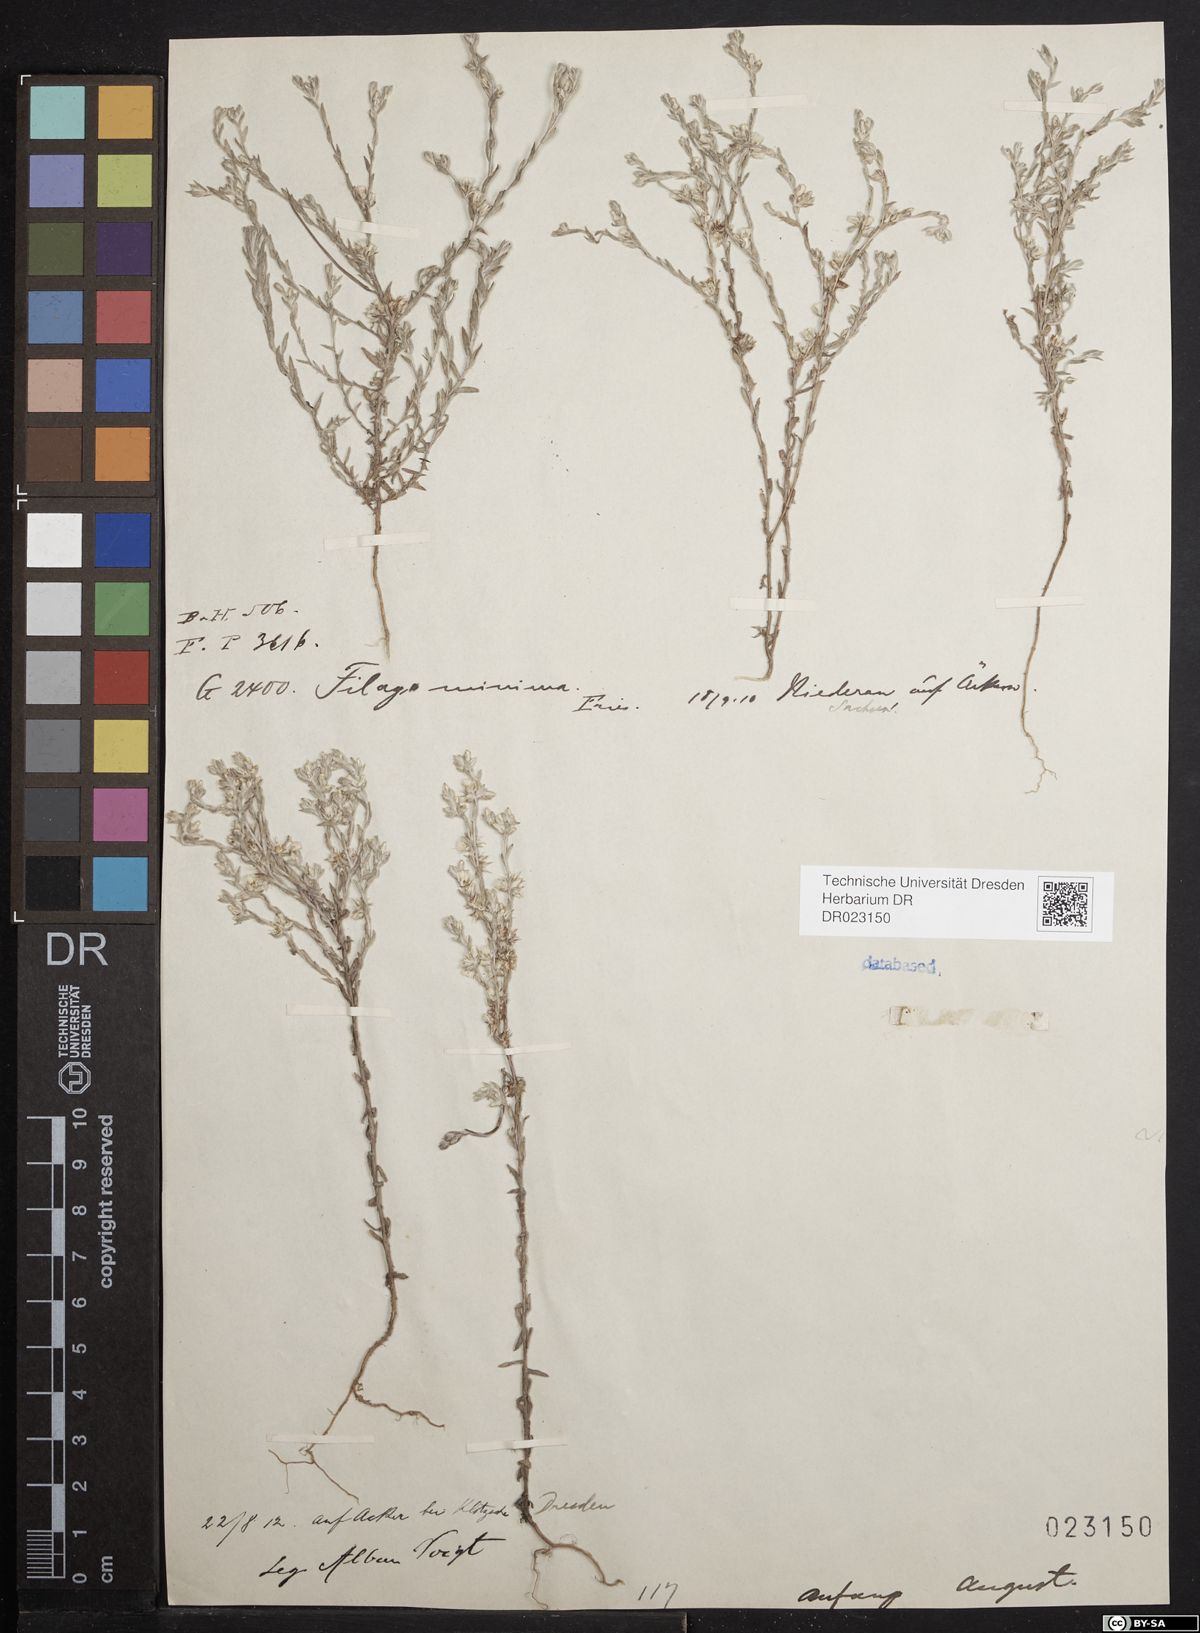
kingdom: Plantae
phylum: Tracheophyta
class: Magnoliopsida
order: Asterales
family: Asteraceae
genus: Logfia
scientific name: Logfia minima
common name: Little cottonrose
